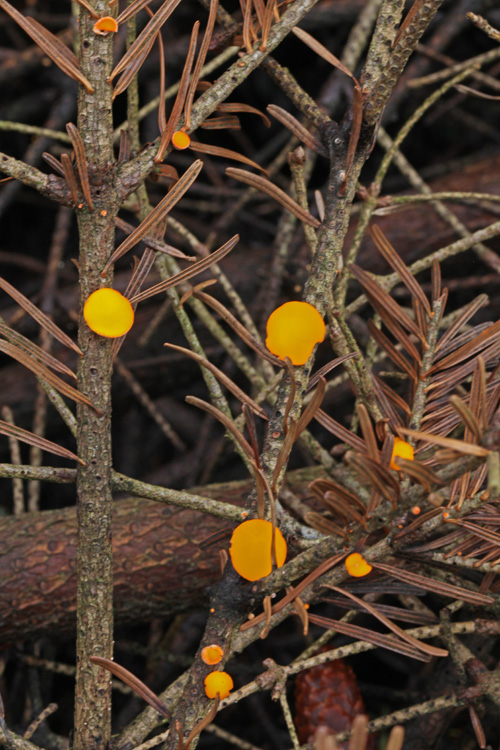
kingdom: Fungi
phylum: Ascomycota
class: Pezizomycetes
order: Pezizales
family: Sarcoscyphaceae
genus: Pithya
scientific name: Pithya vulgaris
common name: stor dukatbæger
